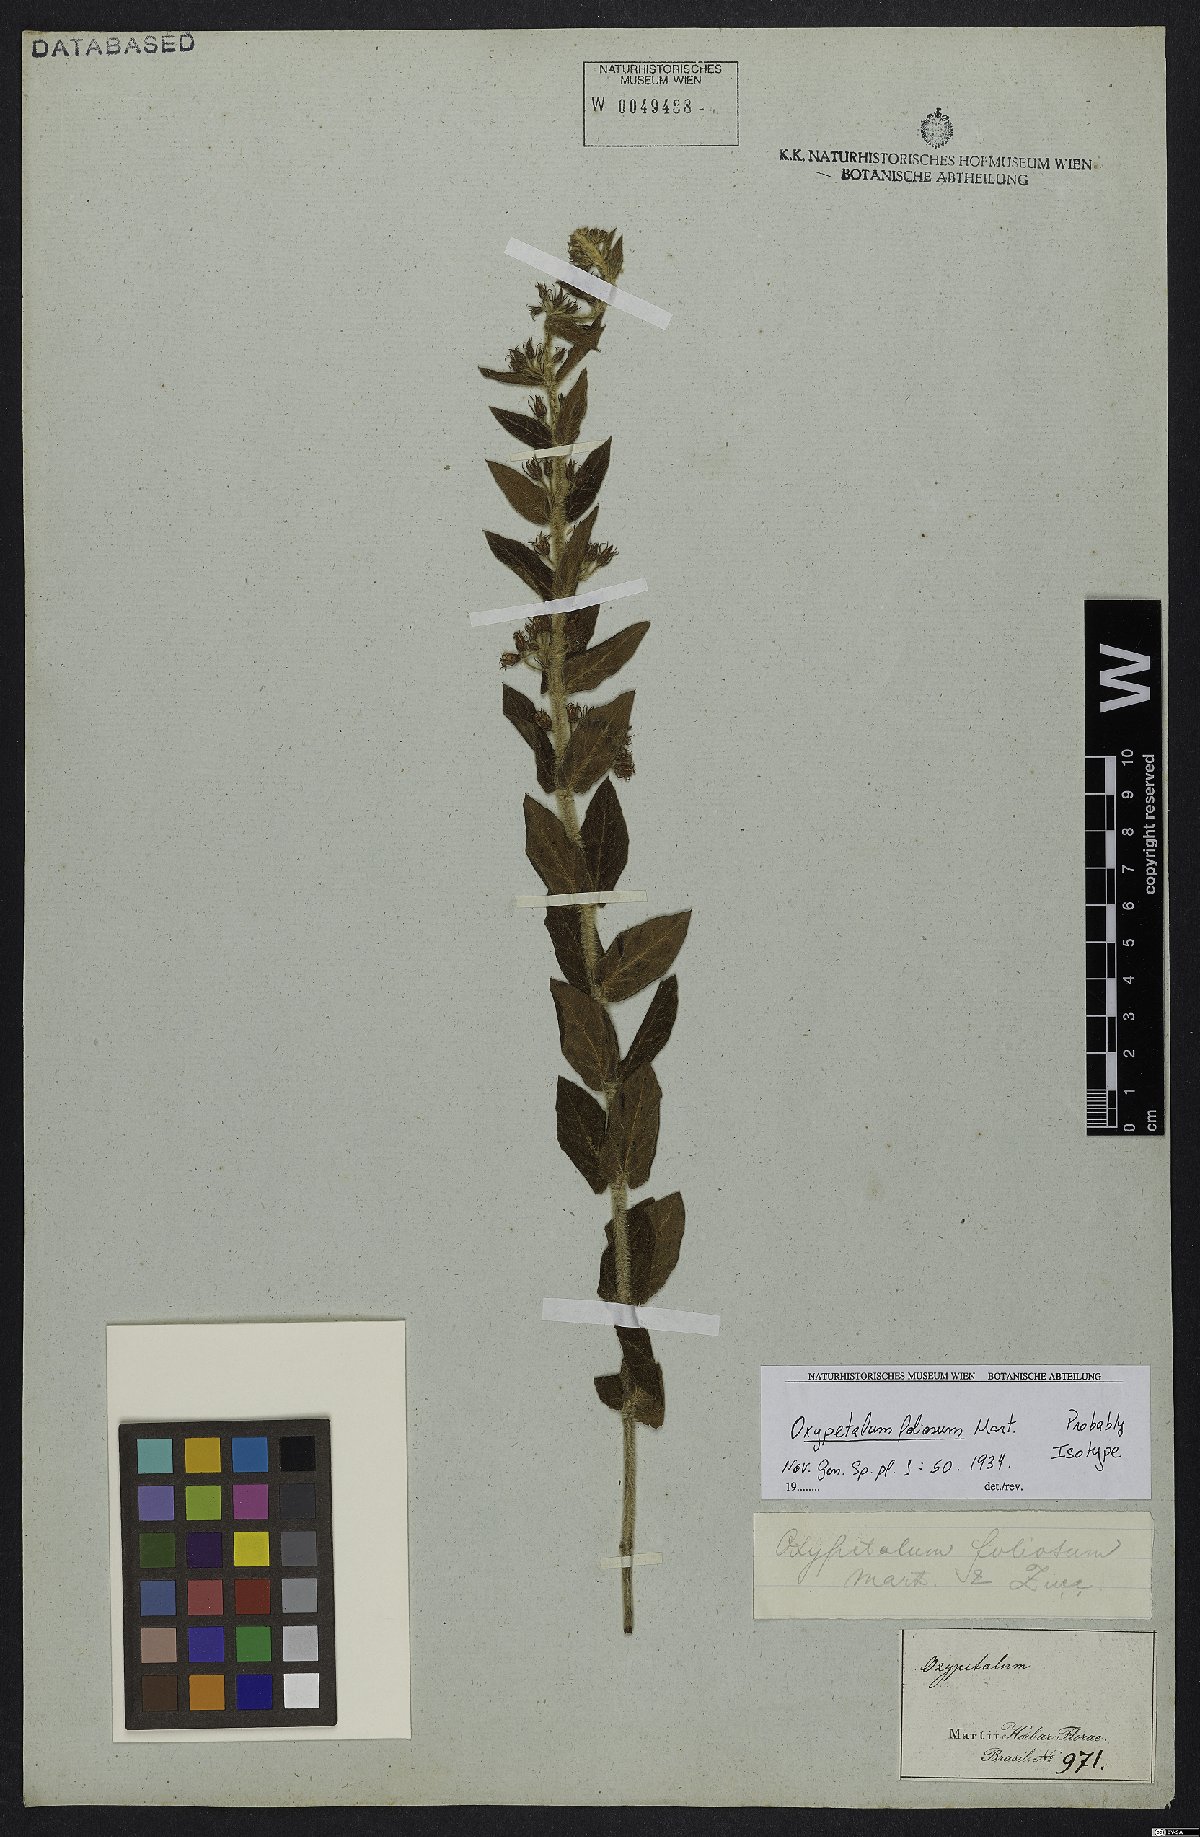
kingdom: Plantae
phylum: Tracheophyta
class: Magnoliopsida
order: Gentianales
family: Apocynaceae
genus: Oxypetalum
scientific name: Oxypetalum foliosum
